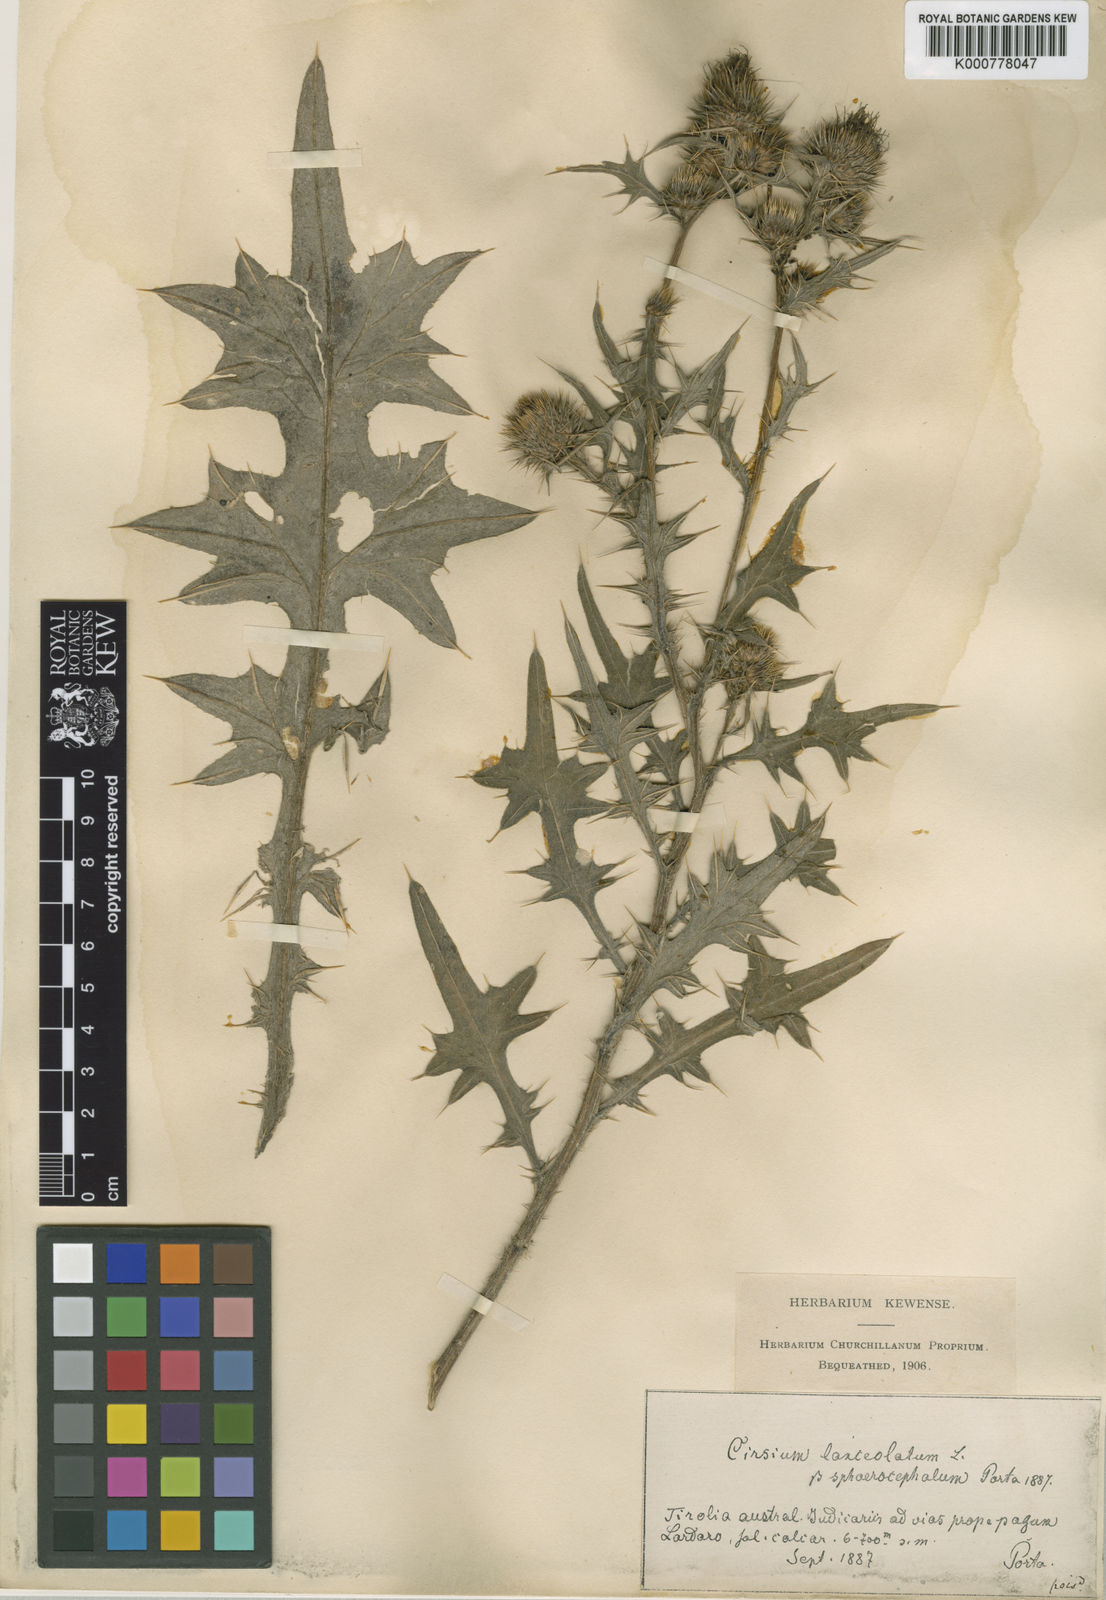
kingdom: Plantae
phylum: Tracheophyta
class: Magnoliopsida
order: Asterales
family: Asteraceae
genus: Cirsium
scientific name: Cirsium
